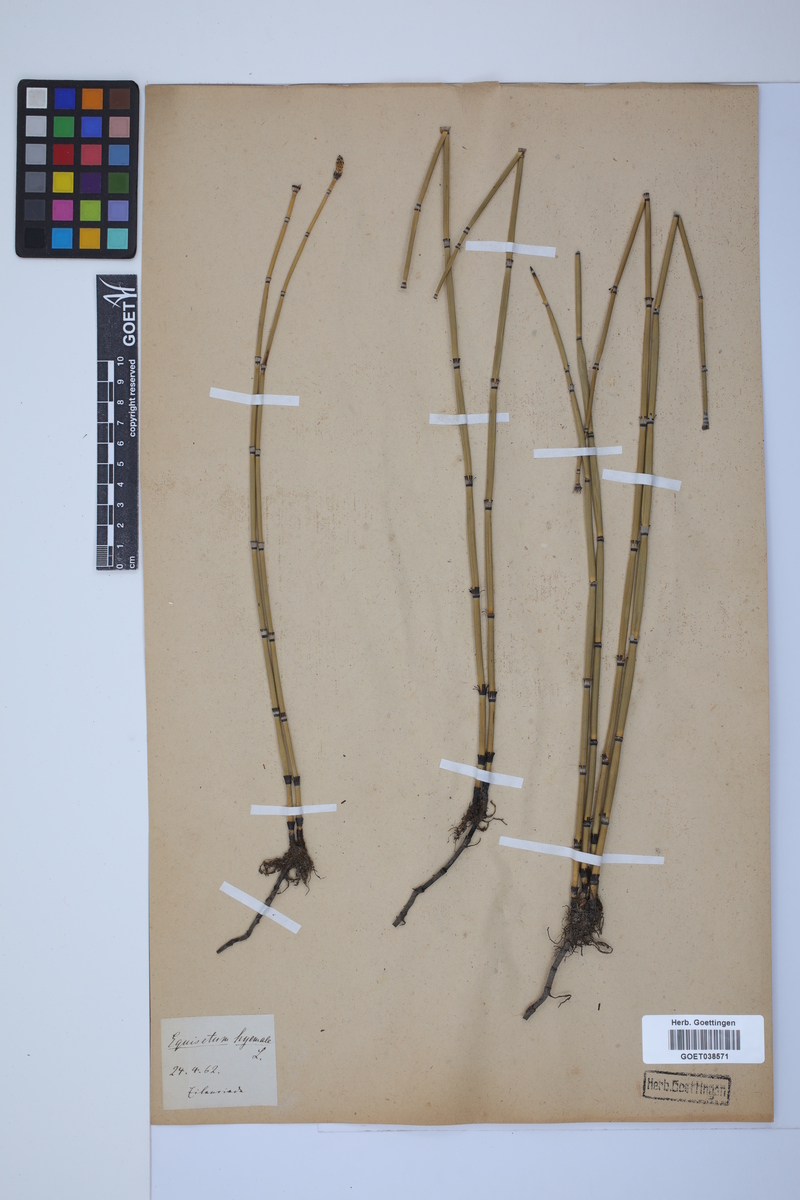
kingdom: Plantae
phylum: Tracheophyta
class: Polypodiopsida
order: Equisetales
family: Equisetaceae
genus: Equisetum
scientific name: Equisetum hyemale
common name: Rough horsetail
